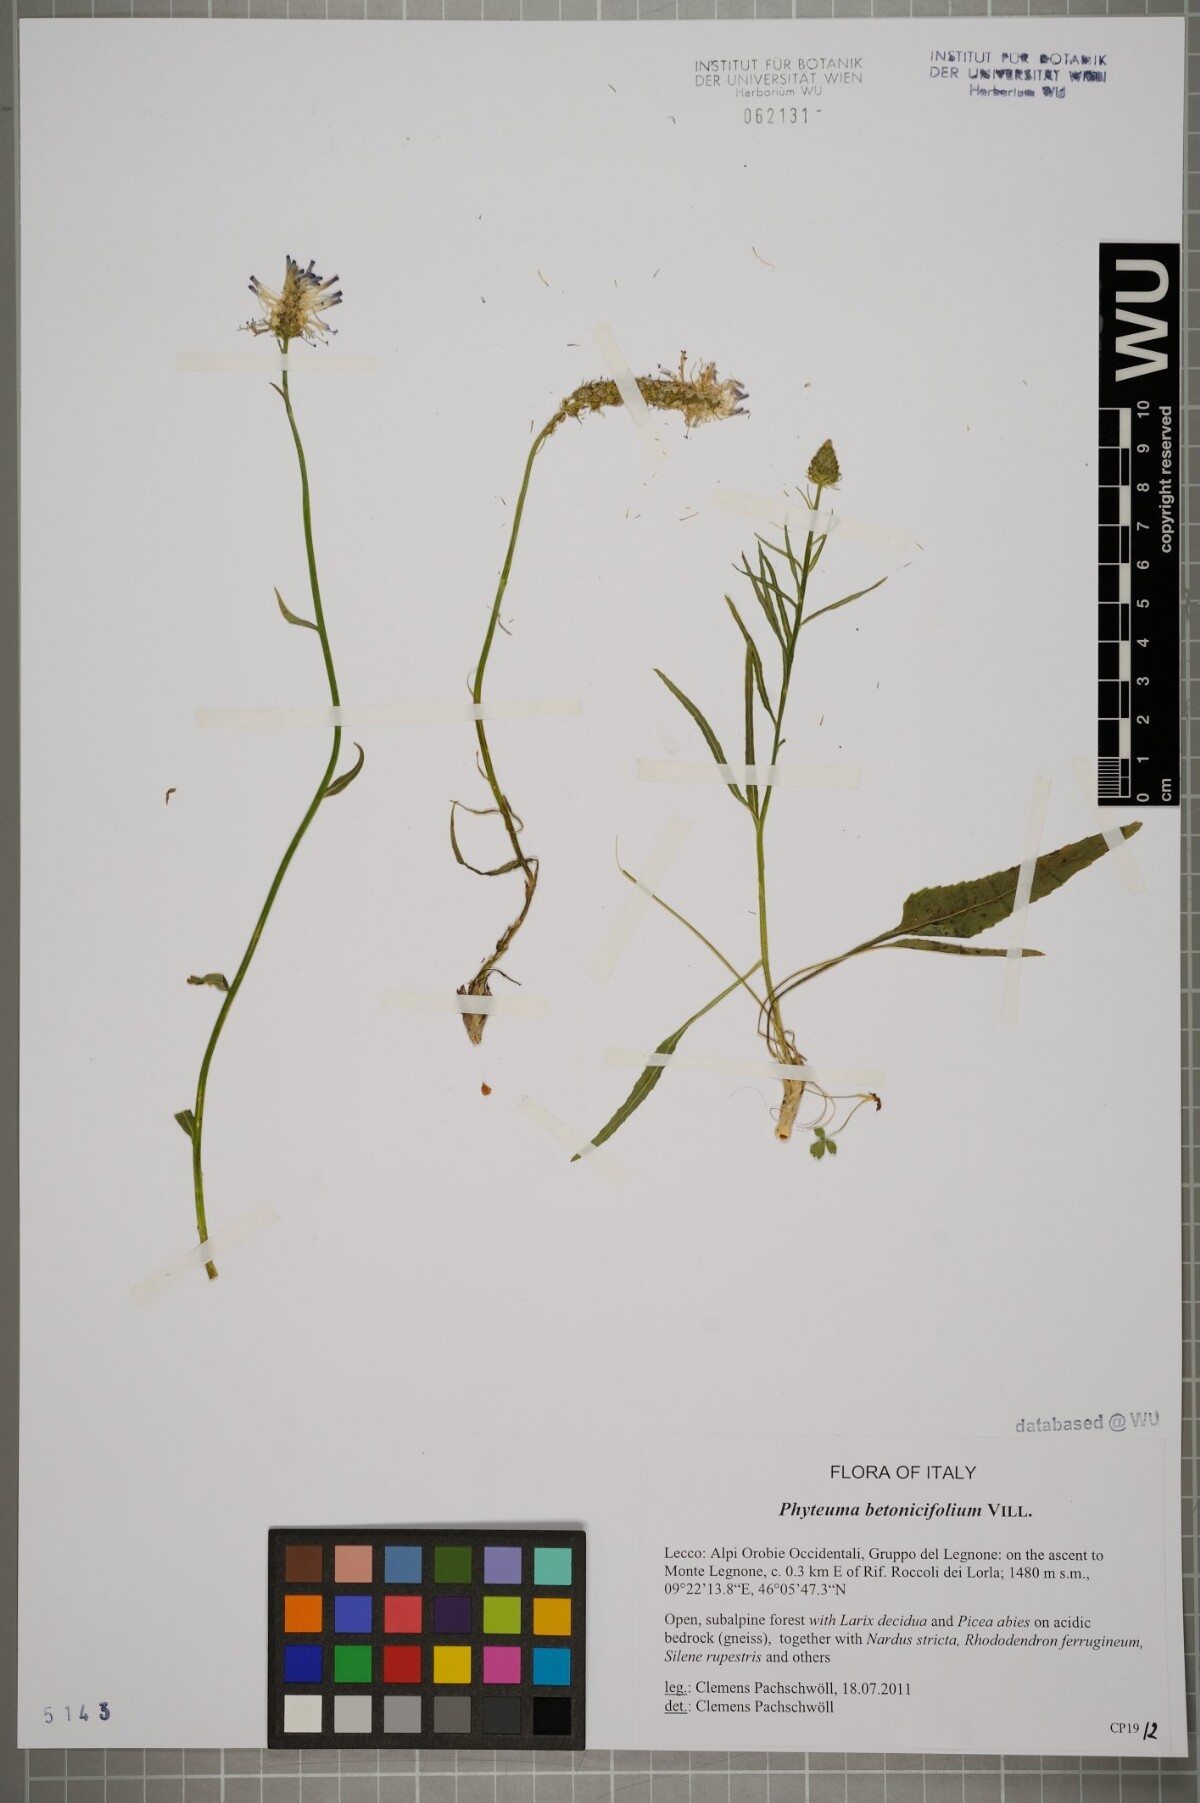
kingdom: Plantae
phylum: Tracheophyta
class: Magnoliopsida
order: Asterales
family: Campanulaceae
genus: Phyteuma
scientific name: Phyteuma betonicifolium
